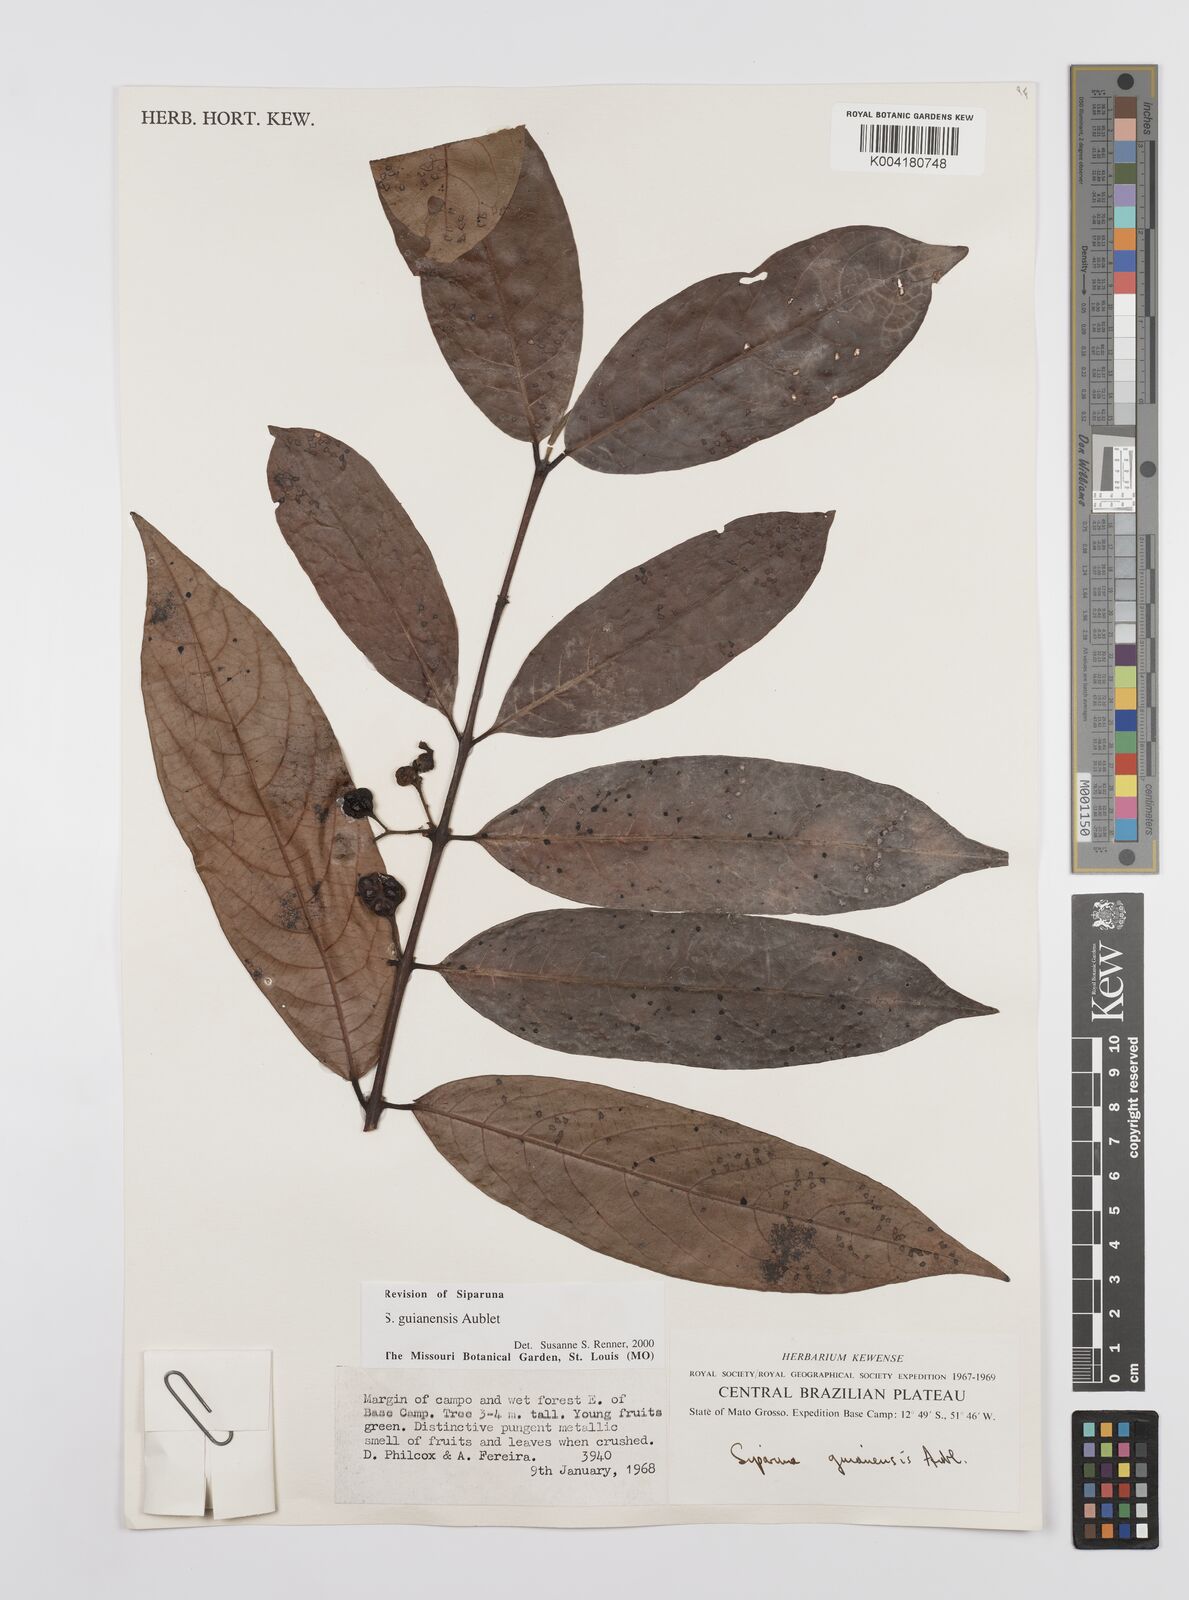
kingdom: Plantae
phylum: Tracheophyta
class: Magnoliopsida
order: Laurales
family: Siparunaceae
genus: Siparuna
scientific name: Siparuna guianensis
